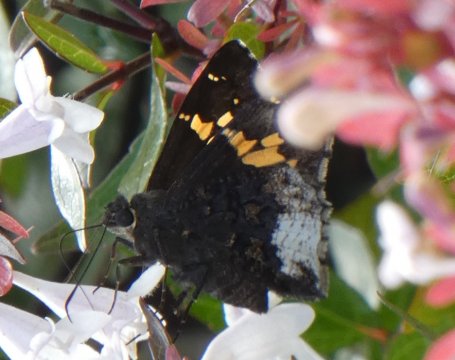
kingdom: Animalia
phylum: Arthropoda
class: Insecta
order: Lepidoptera
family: Hesperiidae
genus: Achalarus
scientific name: Achalarus lyciades
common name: Hoary Edge
